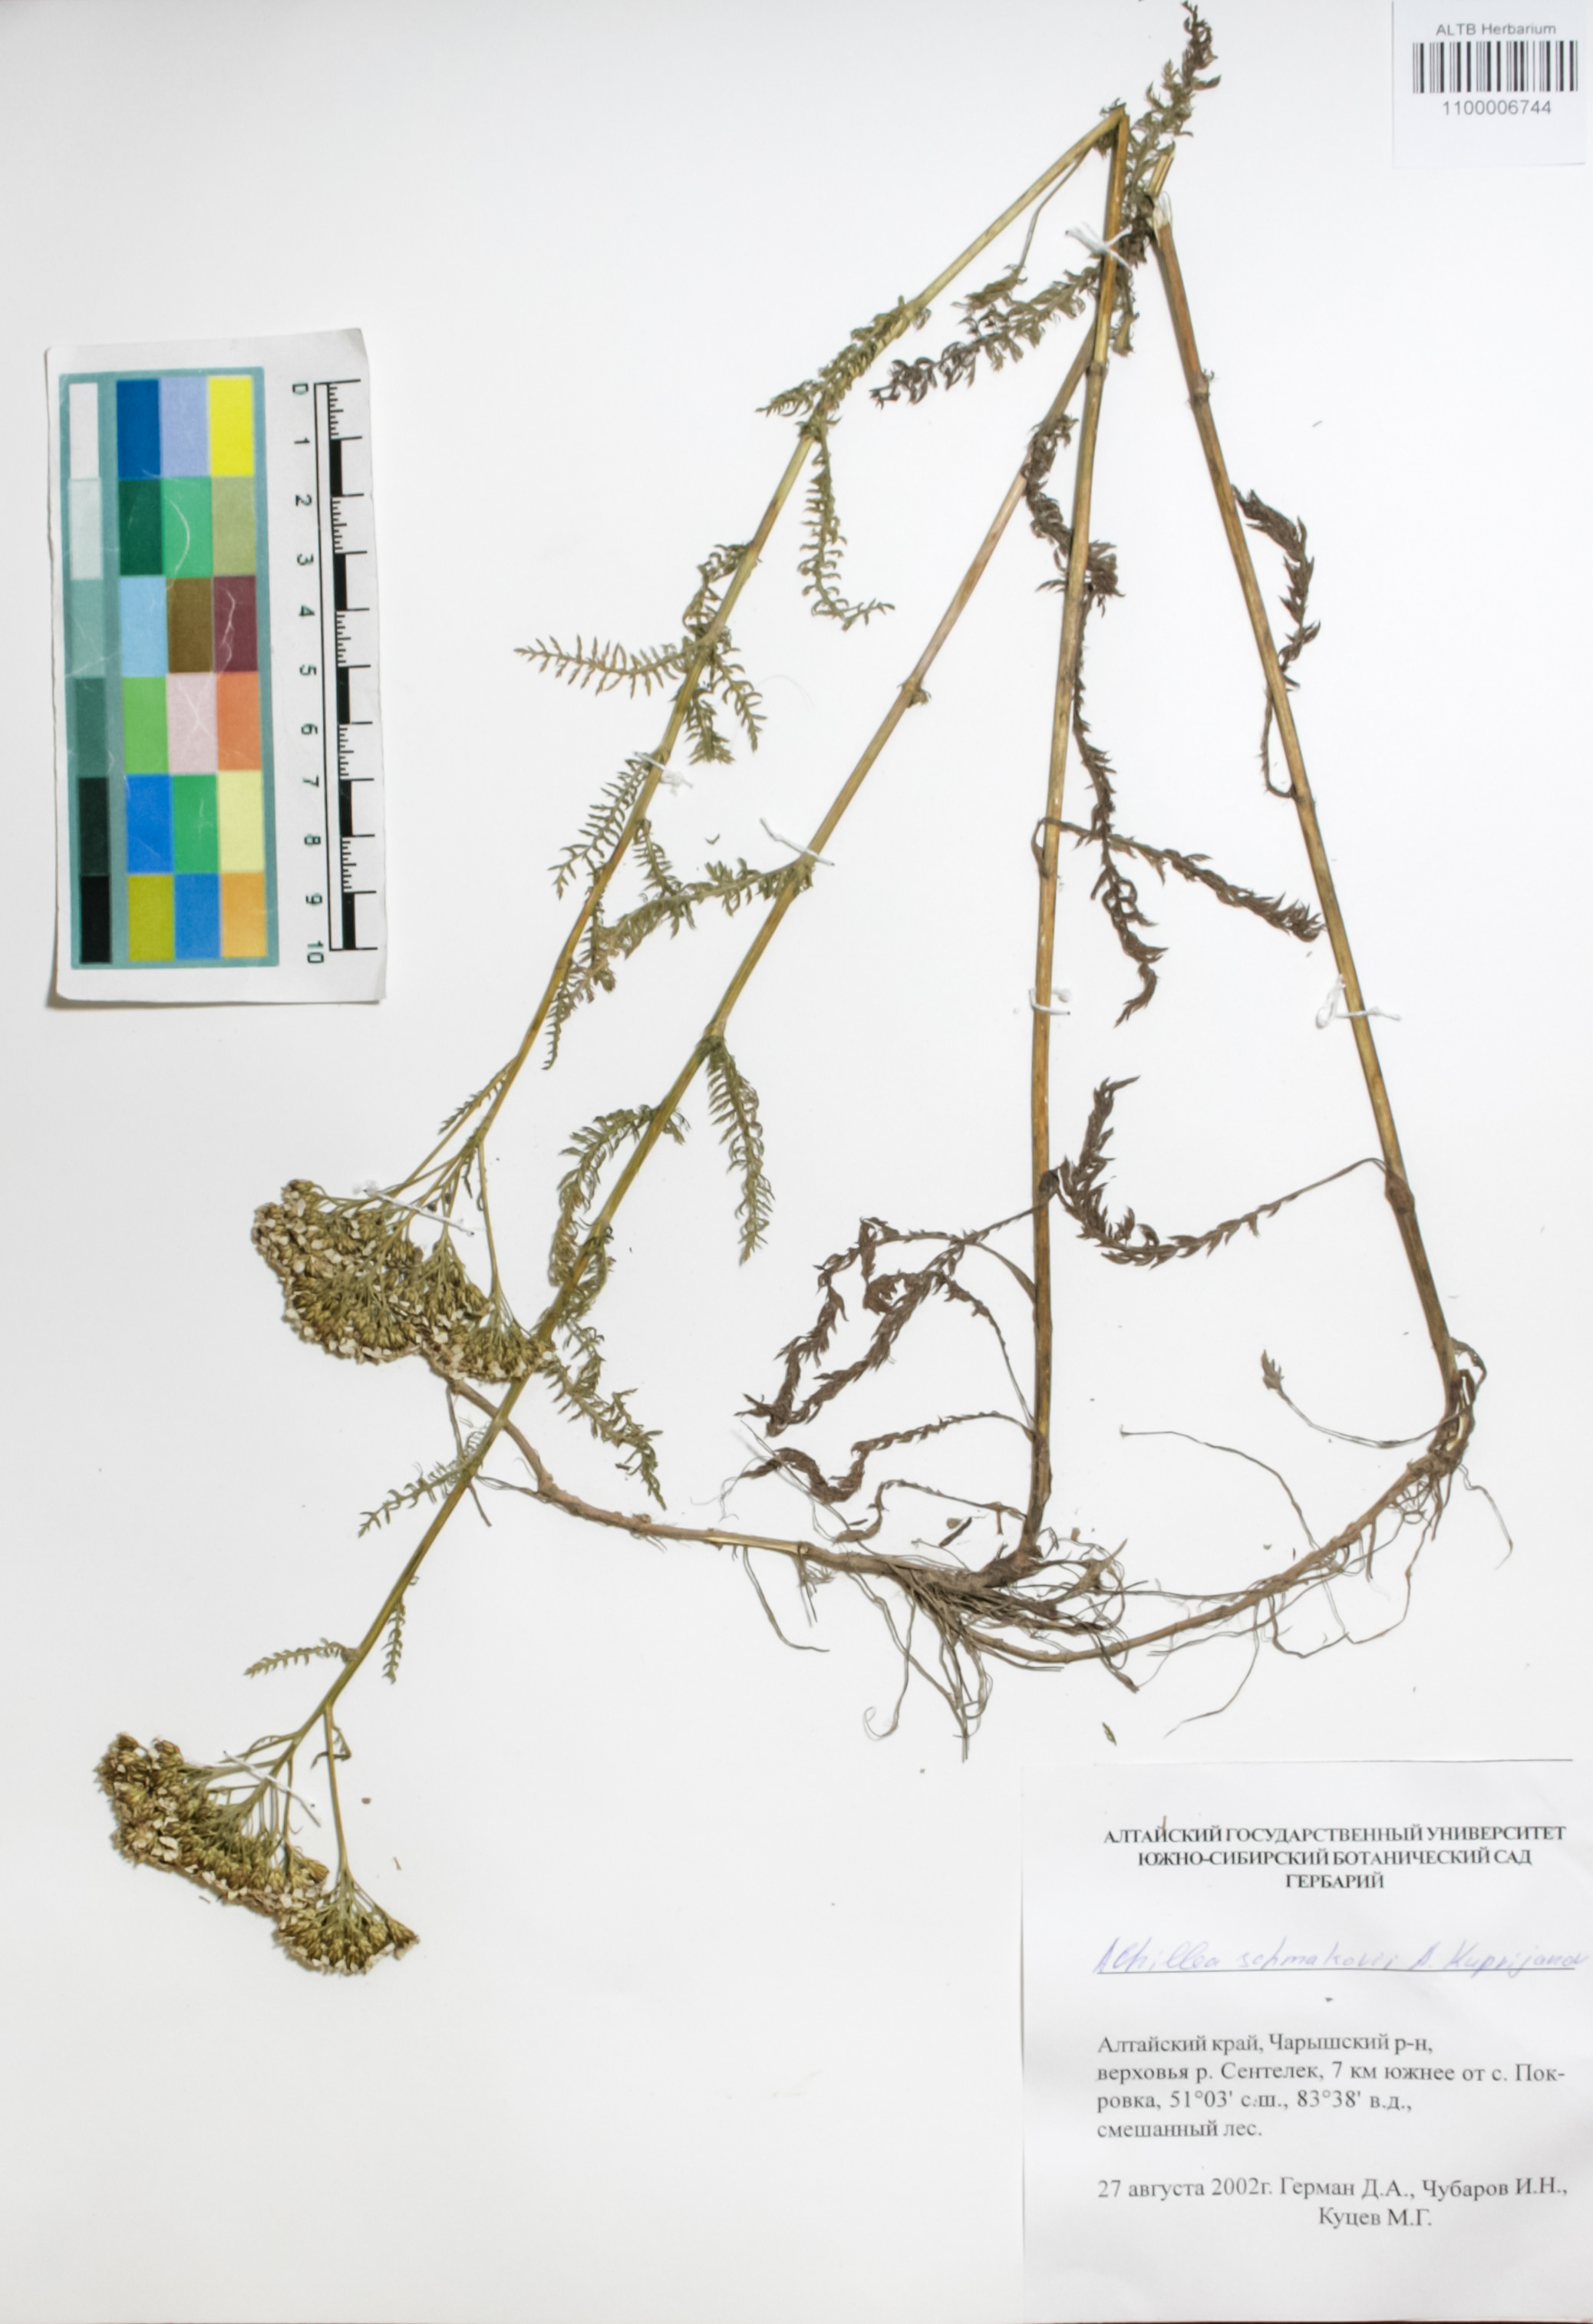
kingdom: Plantae
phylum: Tracheophyta
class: Magnoliopsida
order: Asterales
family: Asteraceae
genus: Achillea
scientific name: Achillea schmakovii
